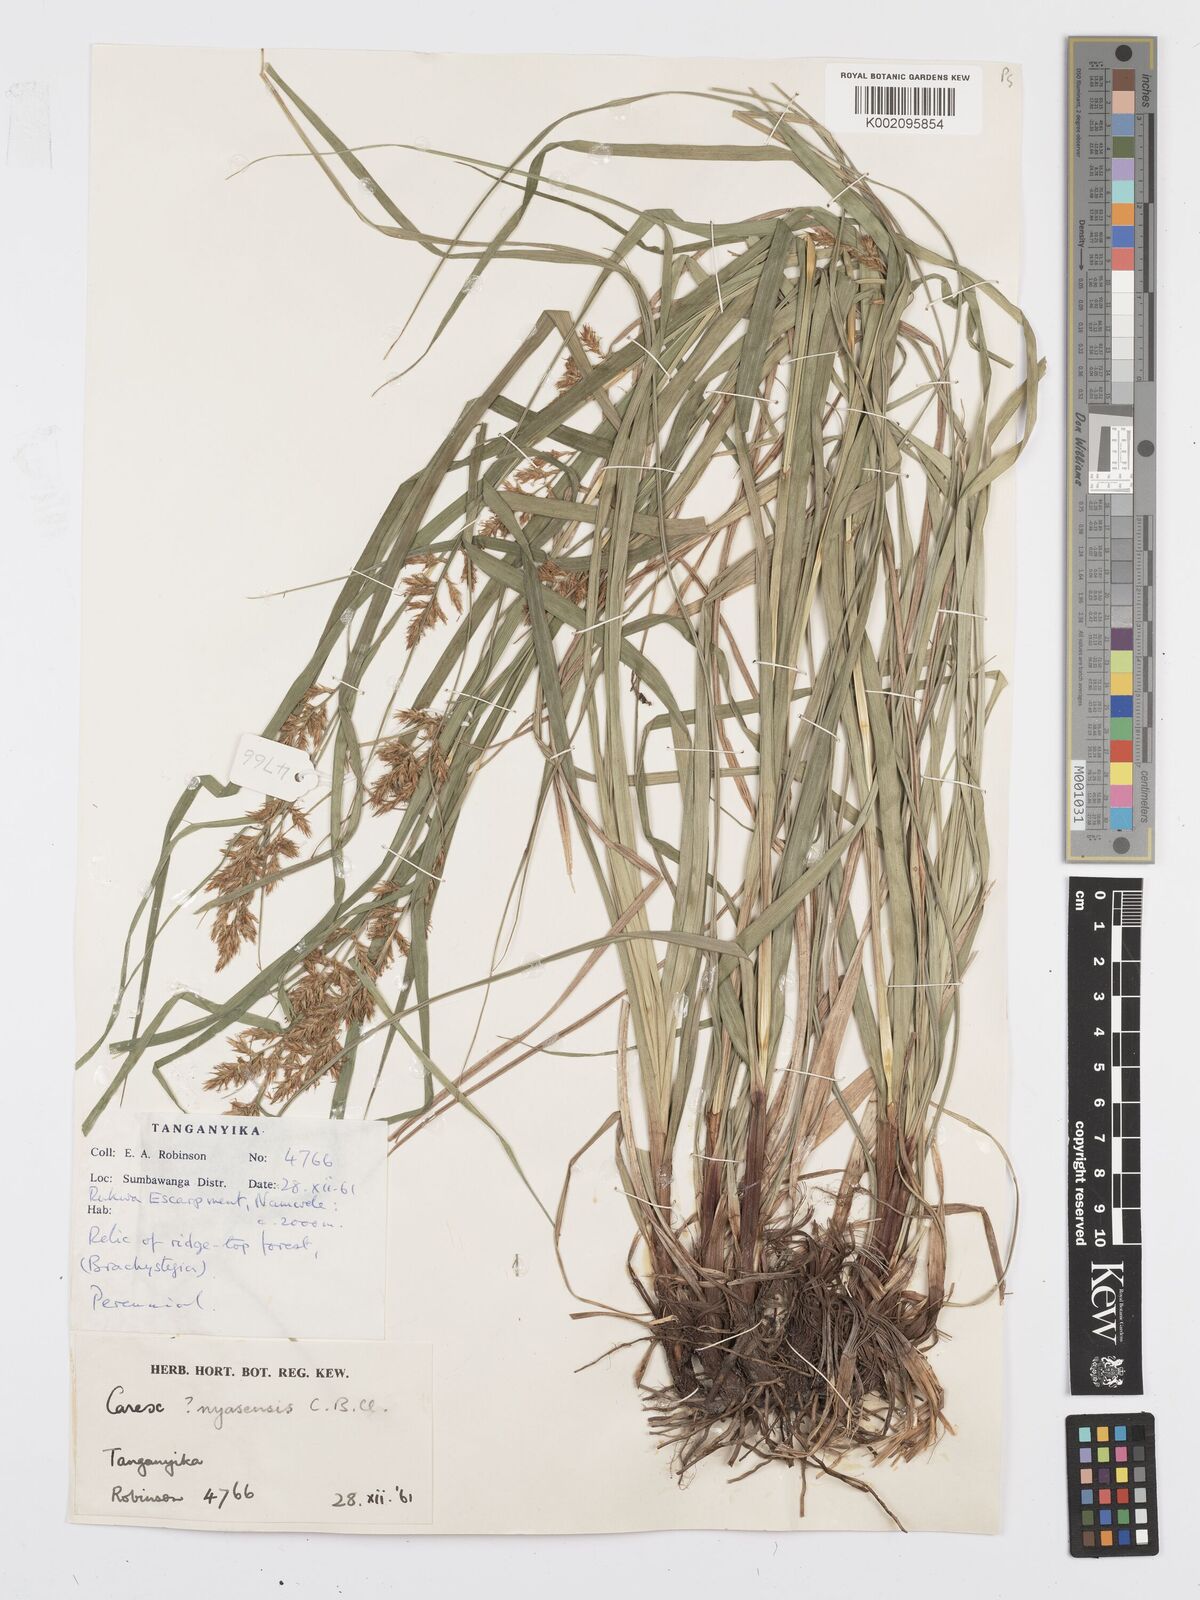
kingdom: Plantae
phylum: Tracheophyta
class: Liliopsida
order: Poales
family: Cyperaceae
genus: Carex
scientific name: Carex spicatopaniculata
